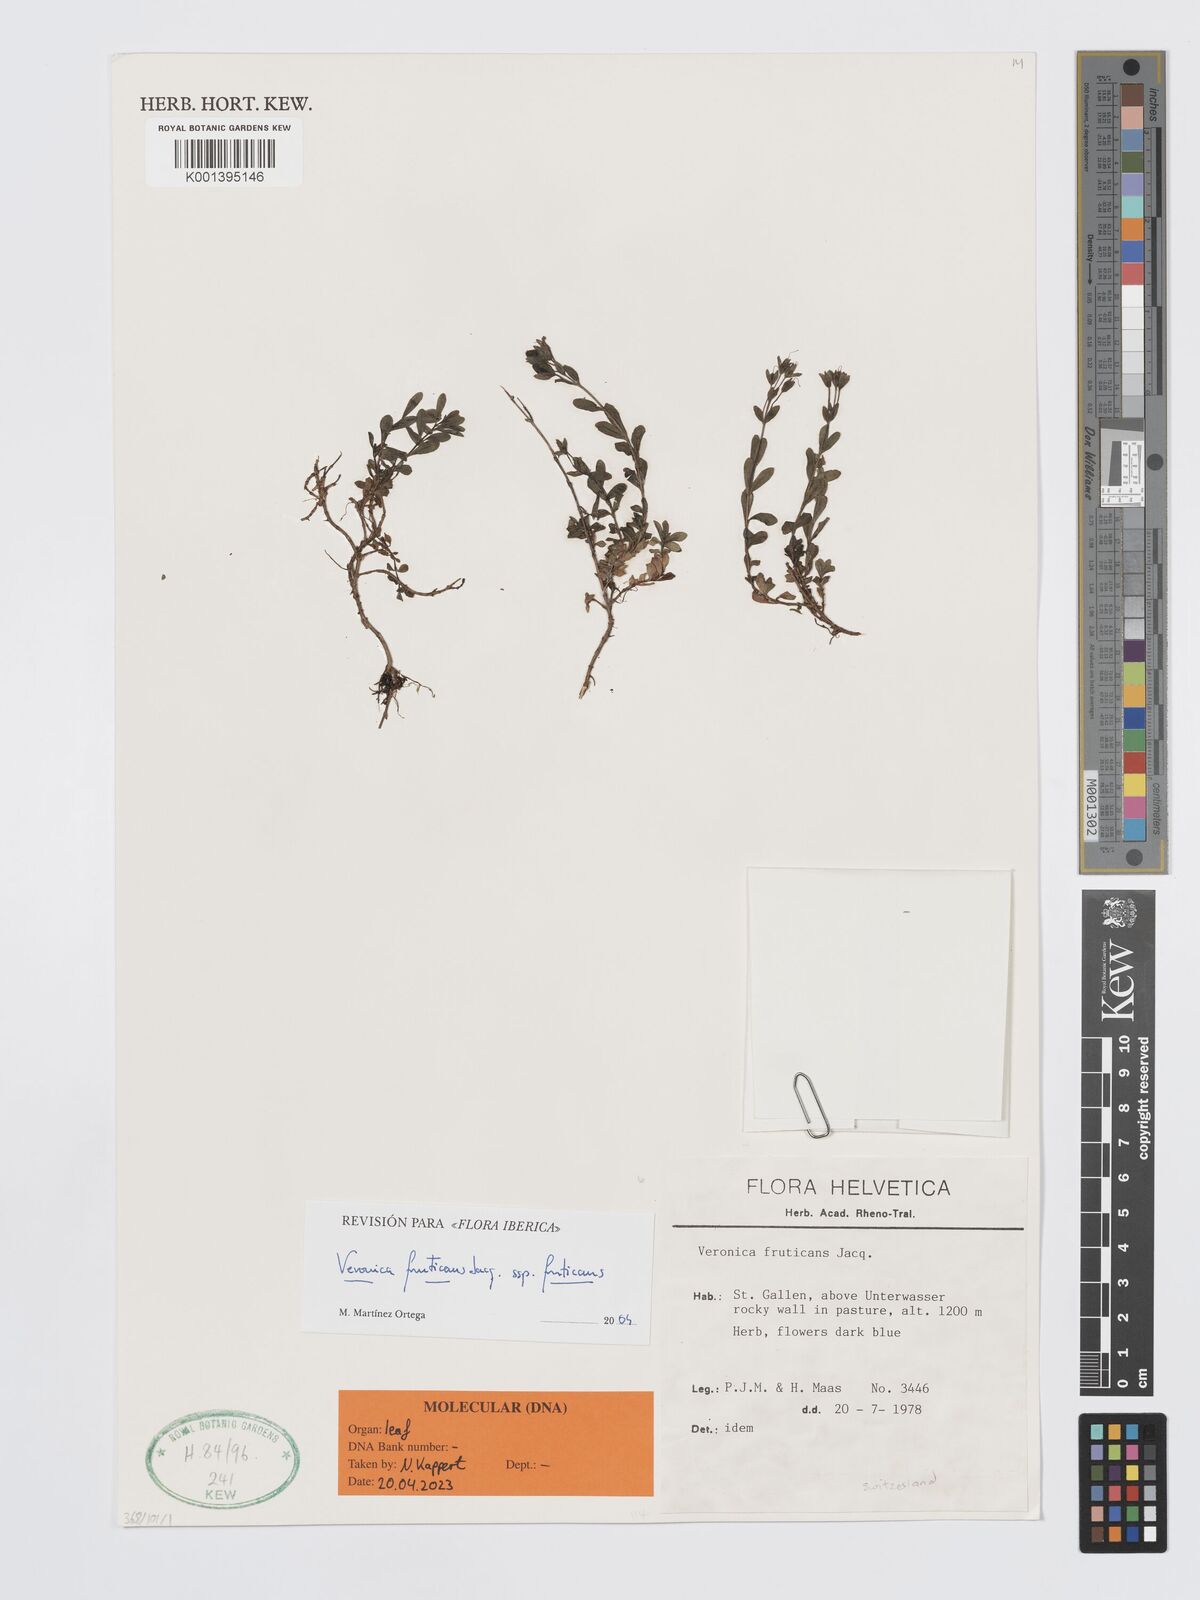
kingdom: Plantae
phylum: Tracheophyta
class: Magnoliopsida
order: Lamiales
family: Plantaginaceae
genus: Veronica
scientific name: Veronica fruticans
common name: Rock speedwell
